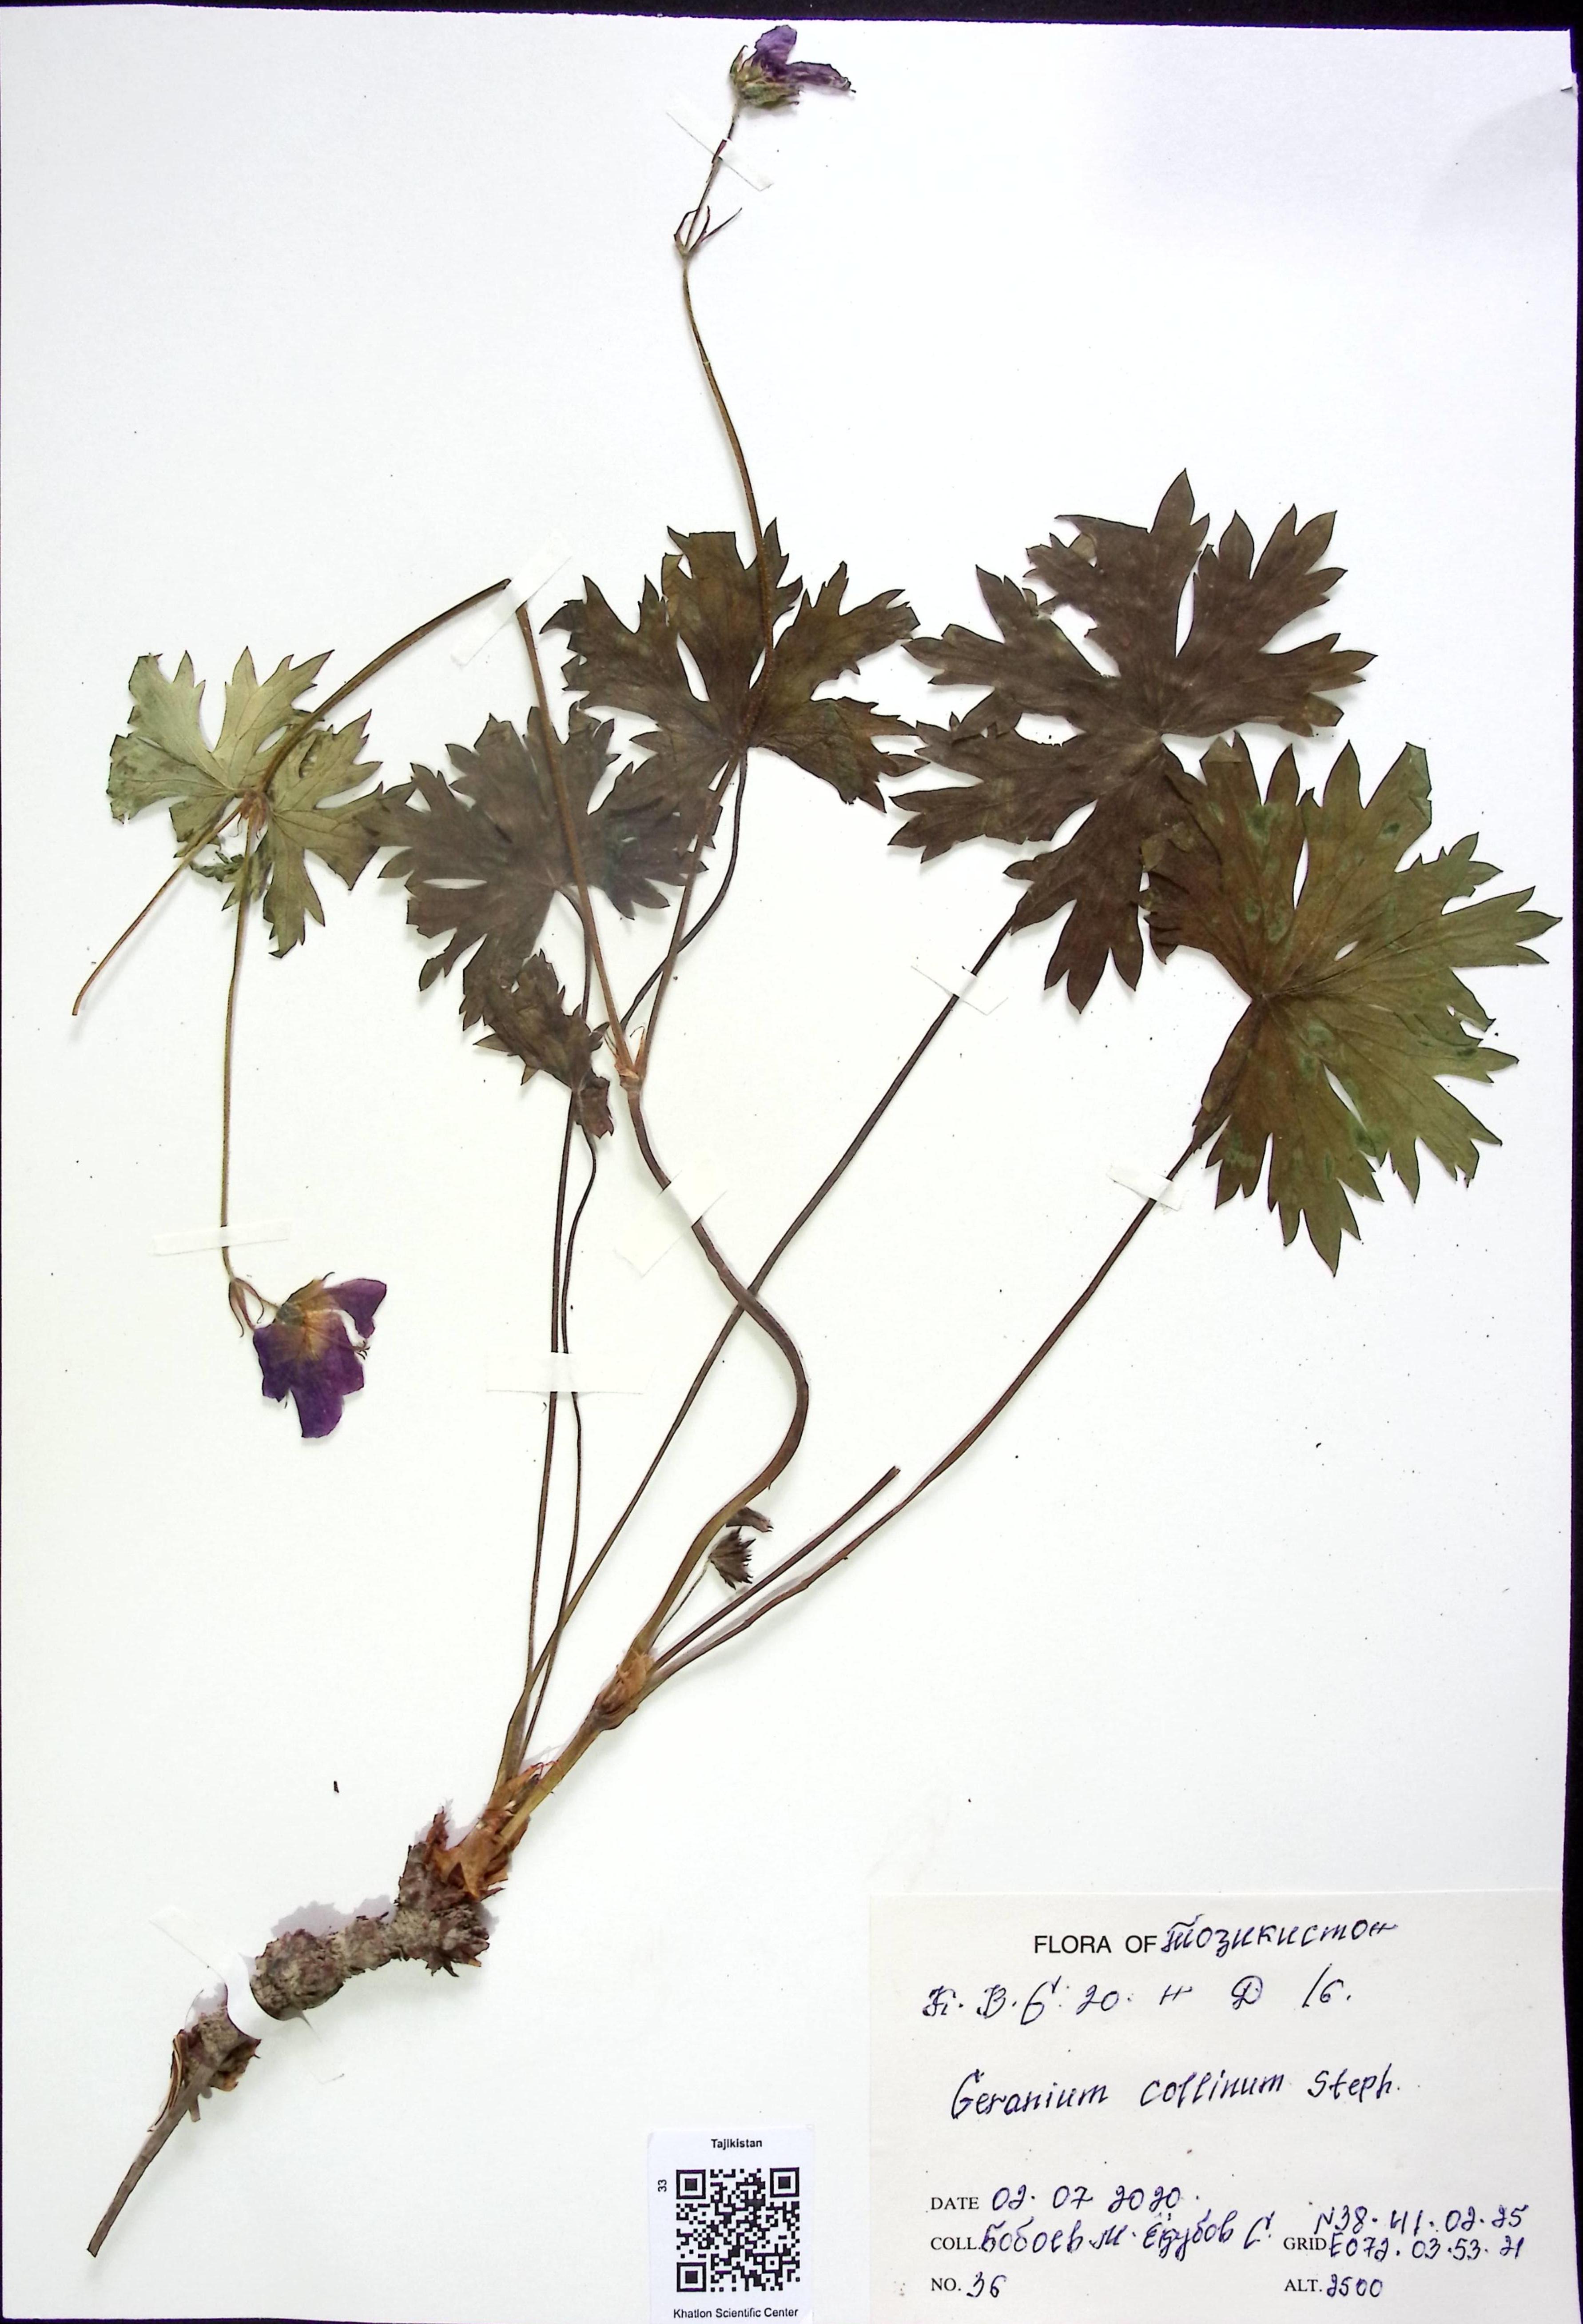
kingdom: Plantae
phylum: Tracheophyta
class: Magnoliopsida
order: Geraniales
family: Geraniaceae
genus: Geranium
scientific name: Geranium collinum
